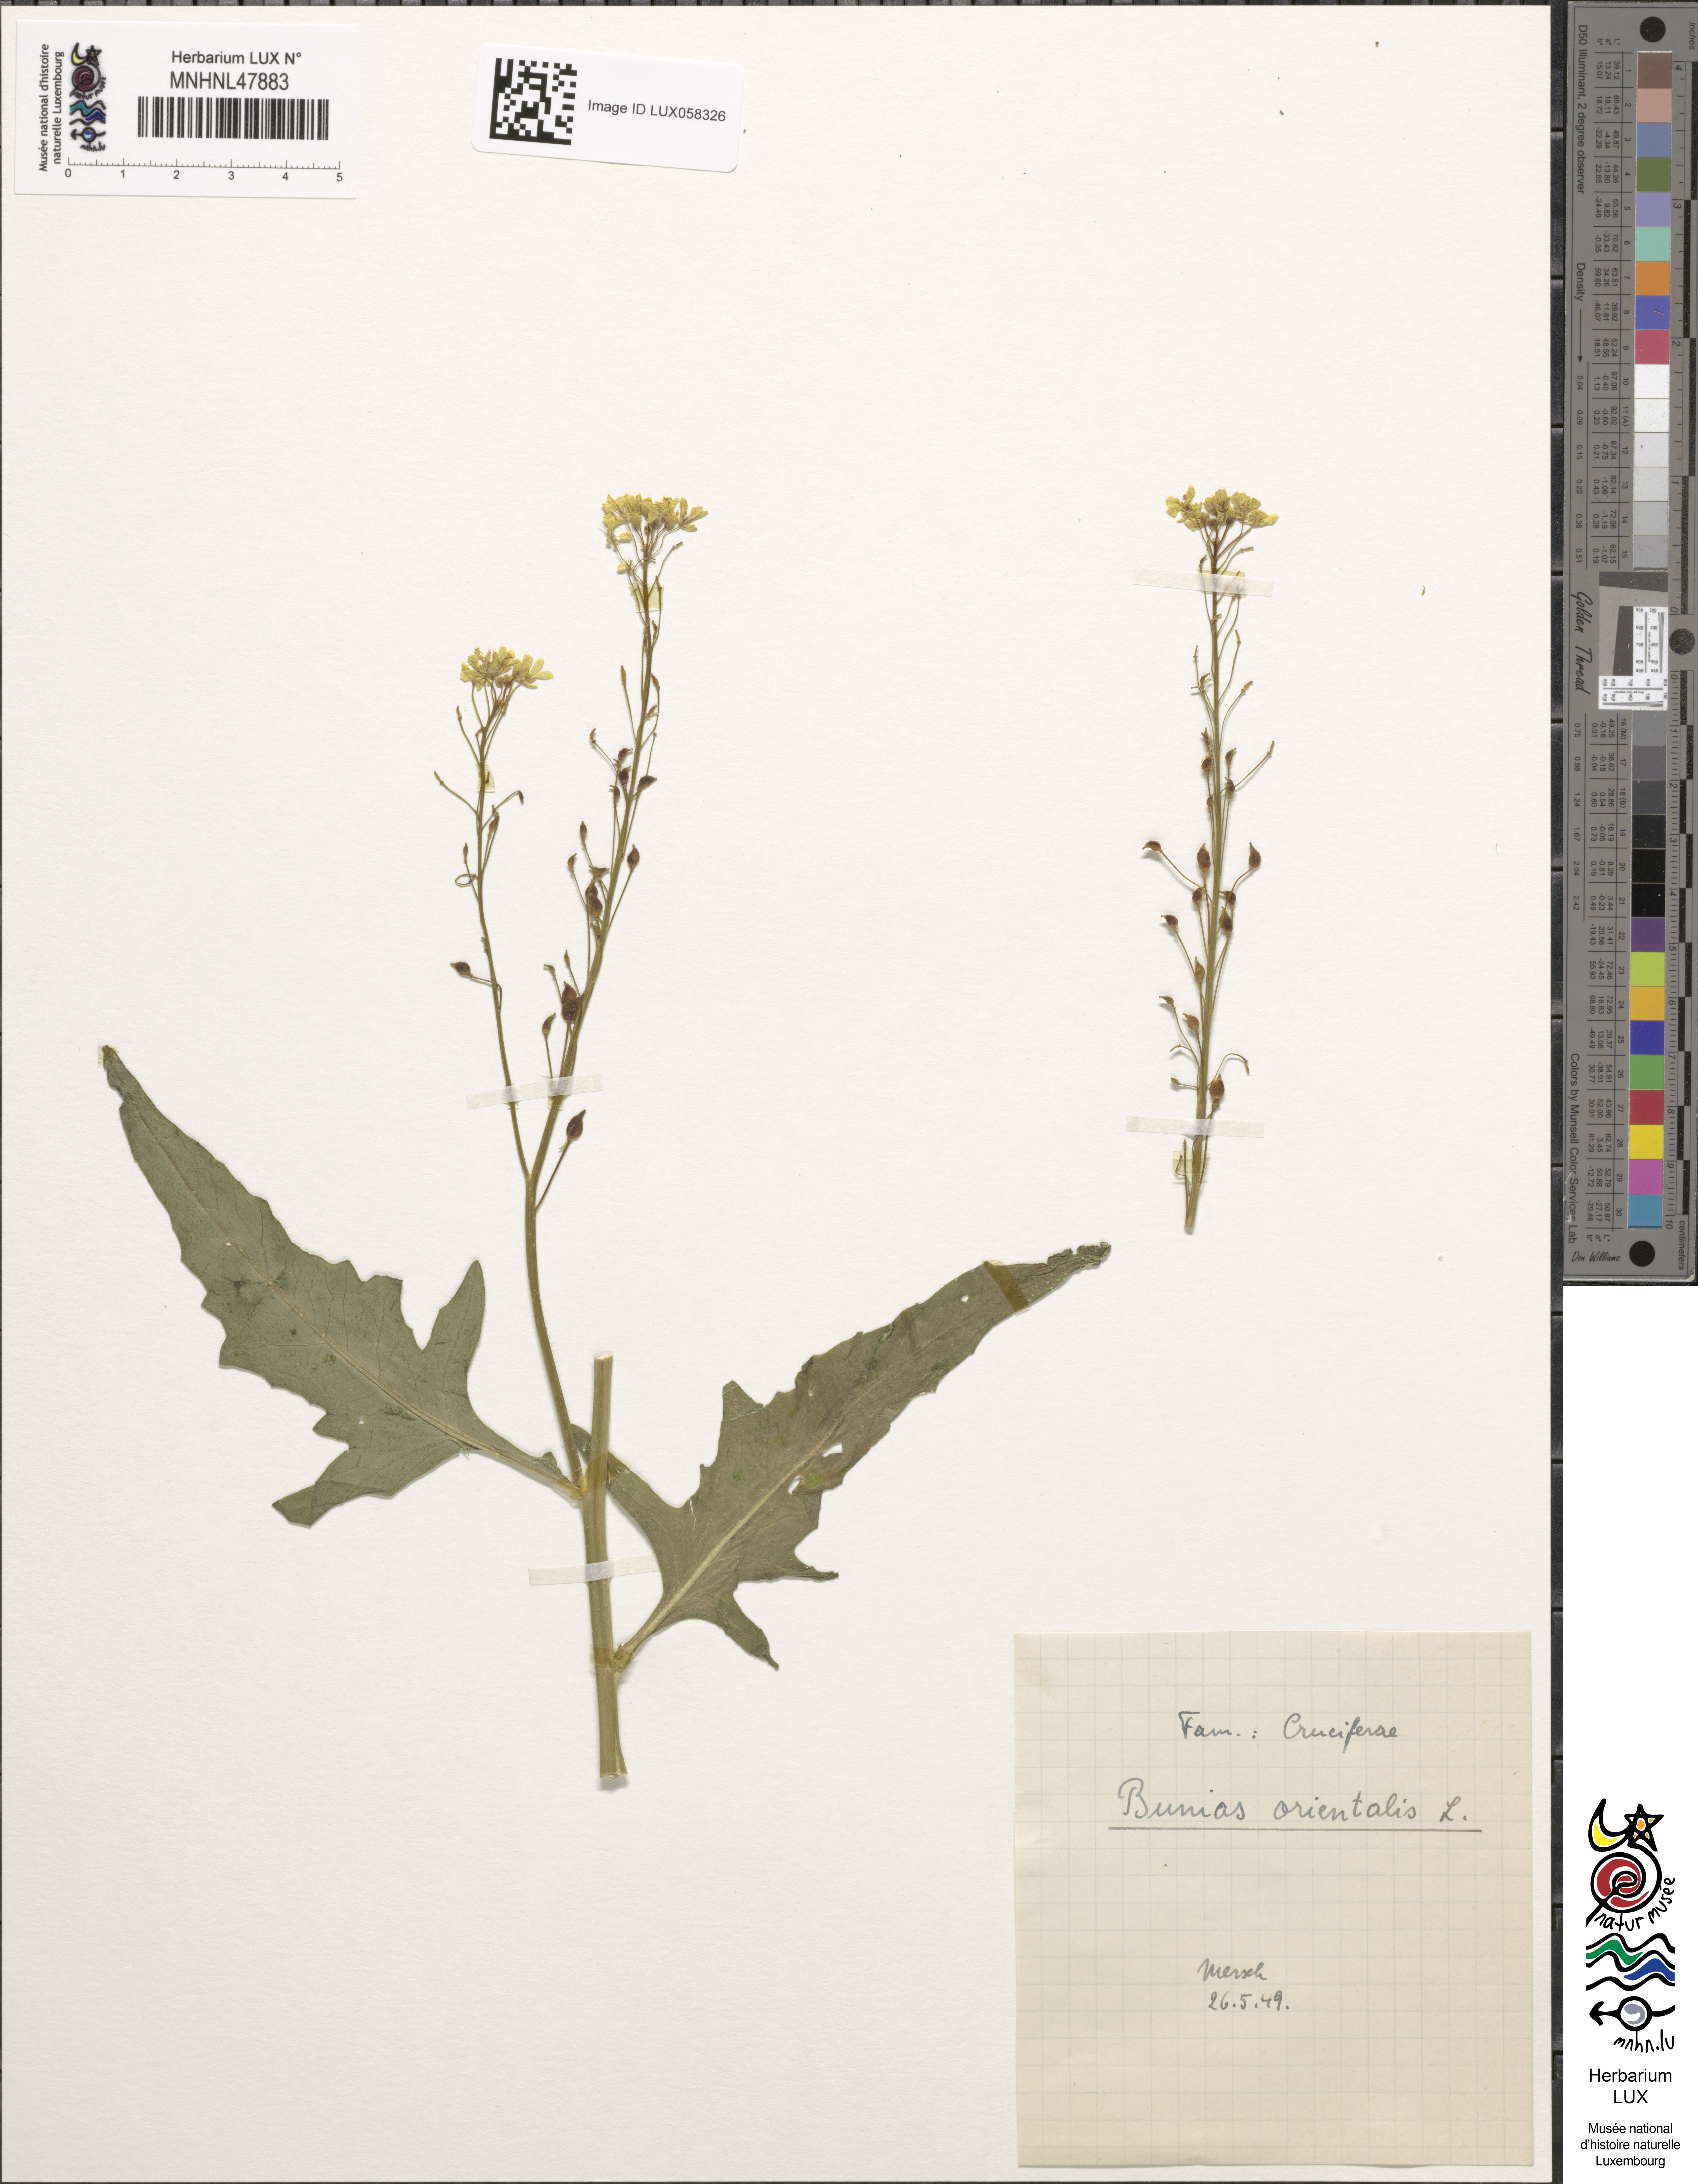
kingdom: Plantae
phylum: Tracheophyta
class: Magnoliopsida
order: Brassicales
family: Brassicaceae
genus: Bunias
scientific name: Bunias orientalis
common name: Warty-cabbage
